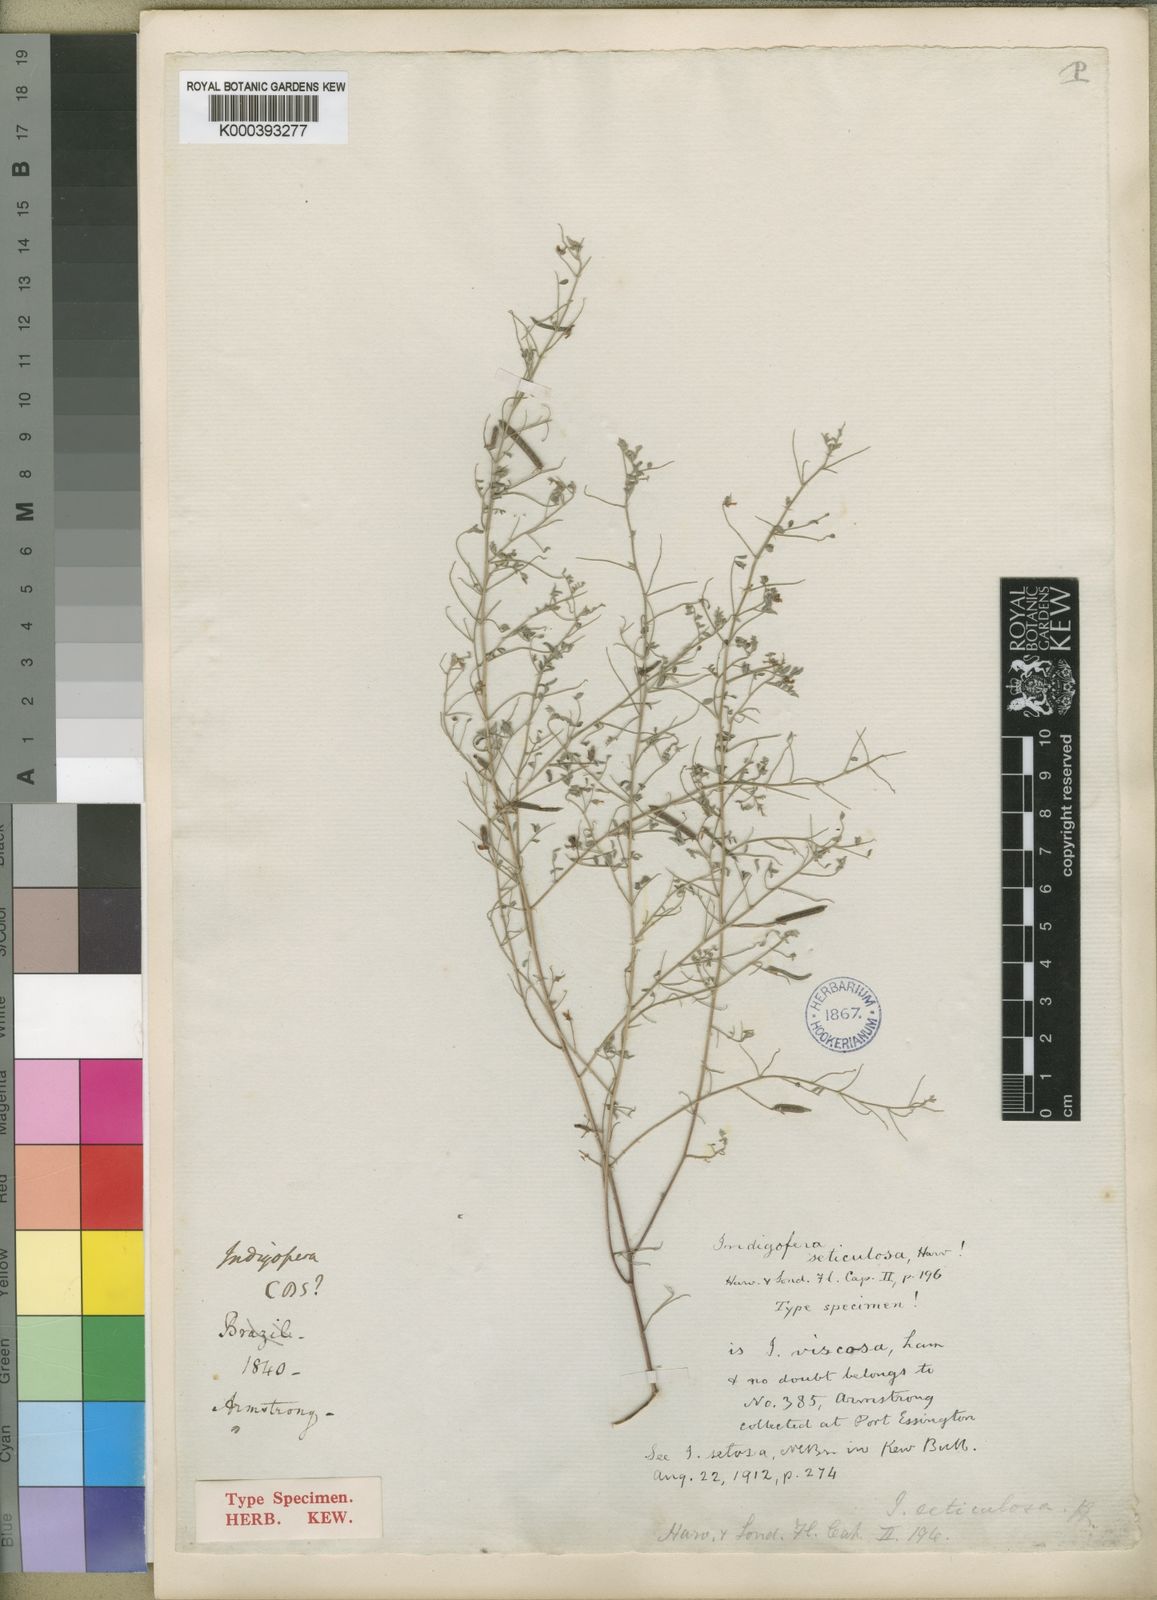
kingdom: Plantae
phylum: Tracheophyta
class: Magnoliopsida
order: Fabales
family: Fabaceae
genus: Indigofera
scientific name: Indigofera colutea
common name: Rusty indigo
